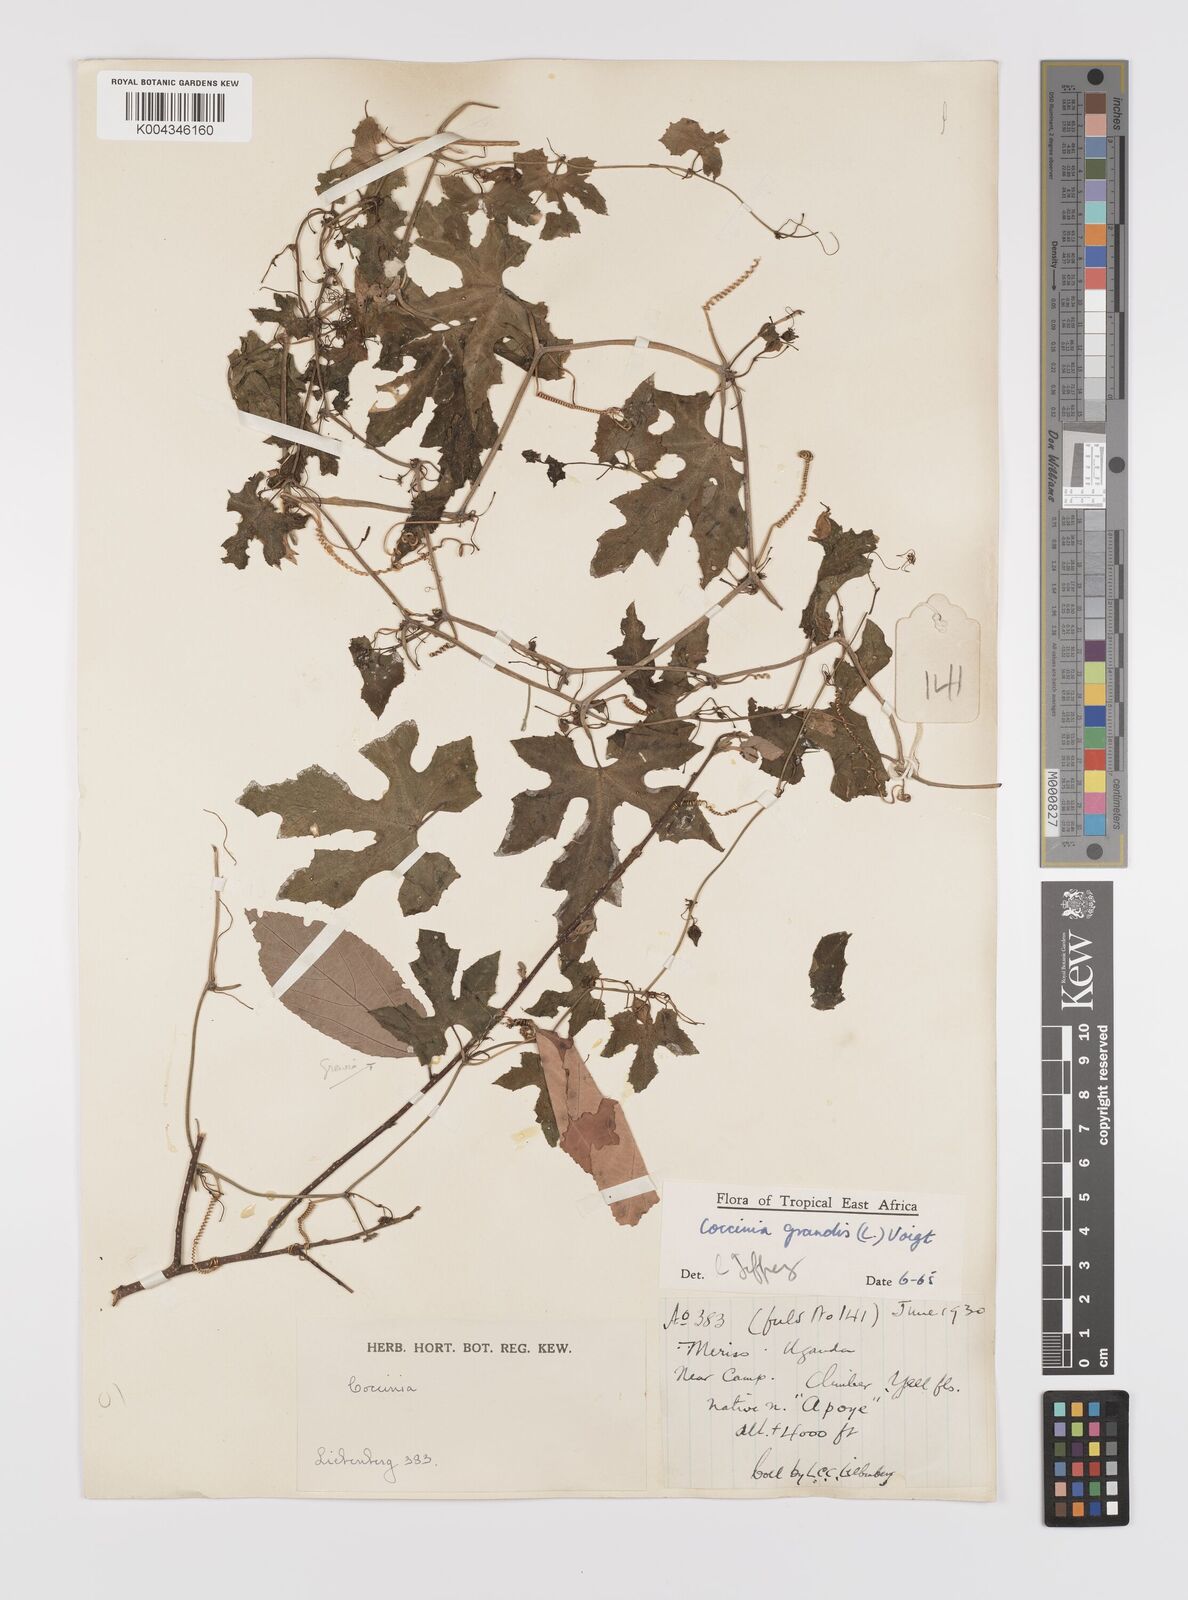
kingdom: Plantae
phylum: Tracheophyta
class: Magnoliopsida
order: Cucurbitales
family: Cucurbitaceae
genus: Coccinia
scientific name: Coccinia grandis
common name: Ivy gourd
